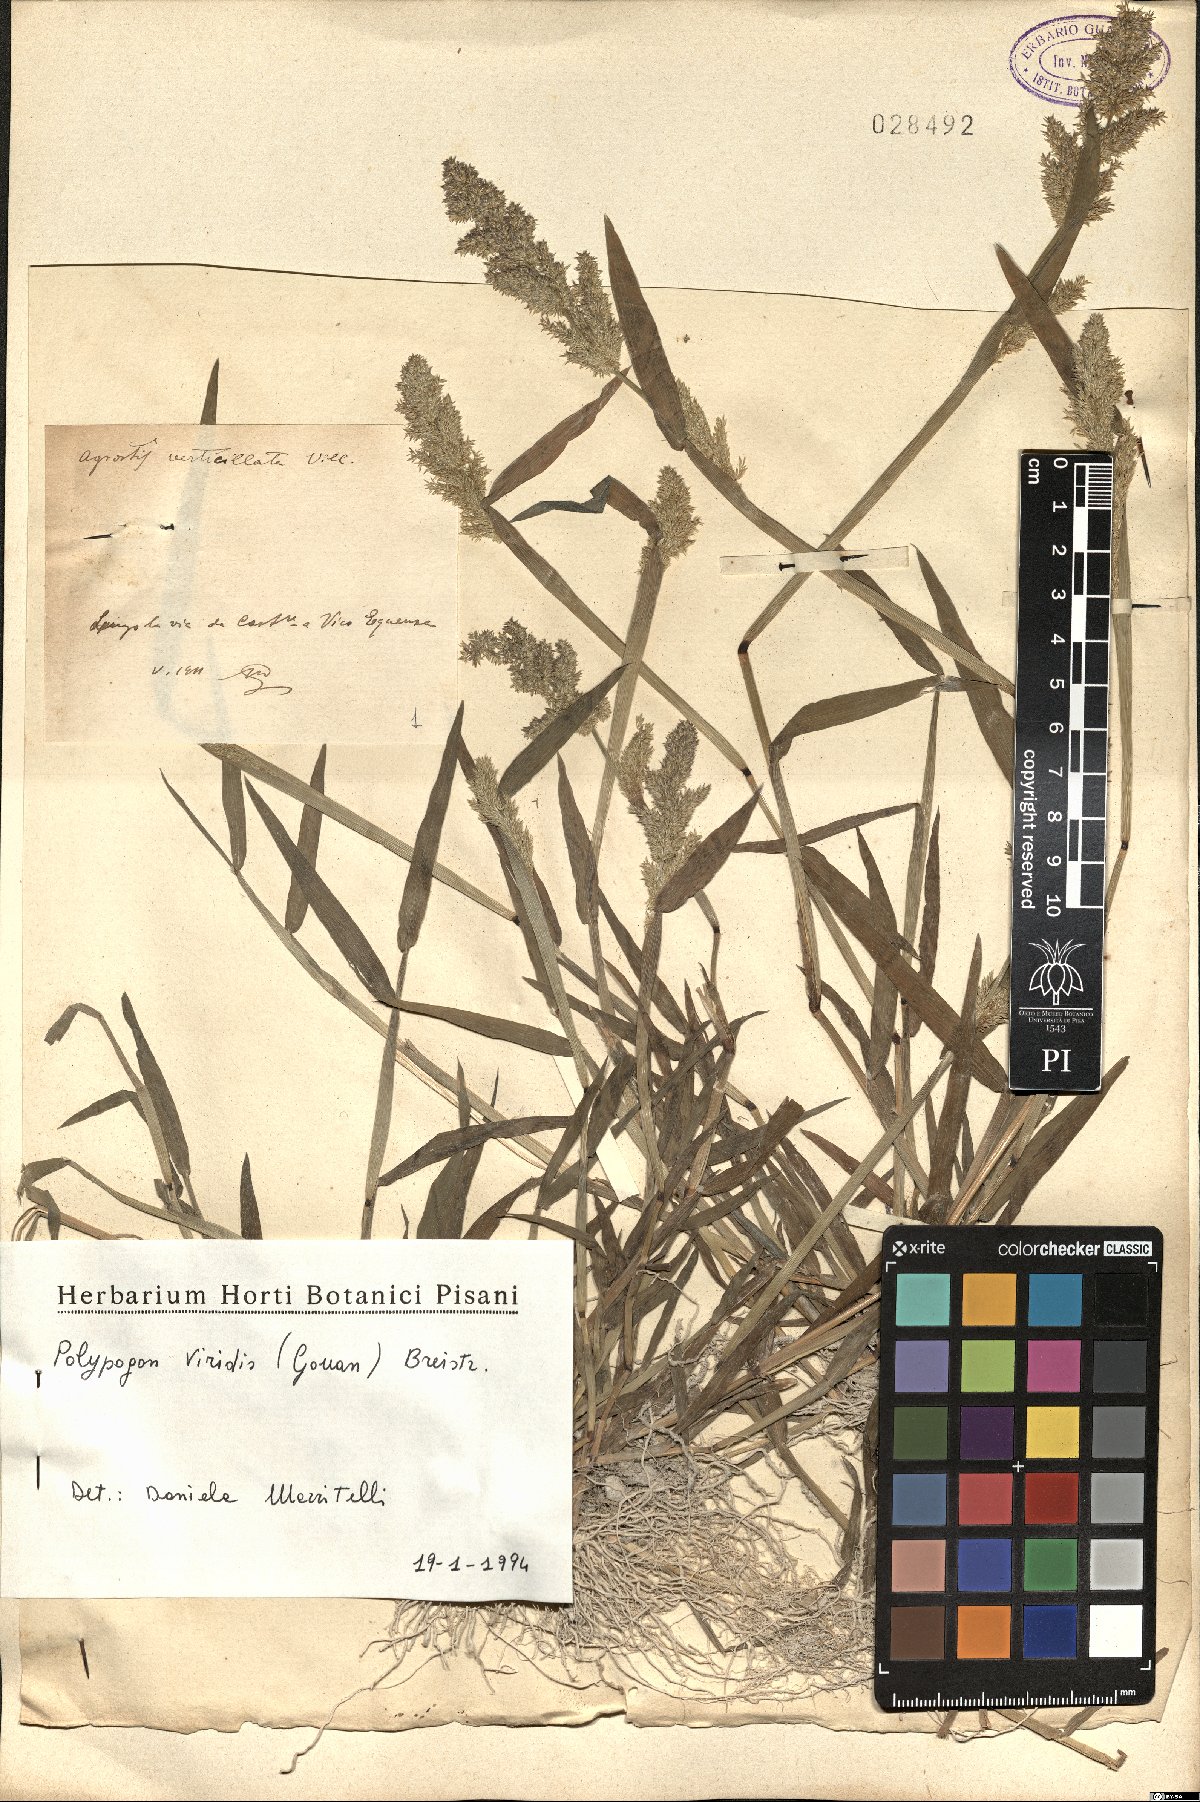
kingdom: Plantae
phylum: Tracheophyta
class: Liliopsida
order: Poales
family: Poaceae
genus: Polypogon
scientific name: Polypogon viridis
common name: Water bent
